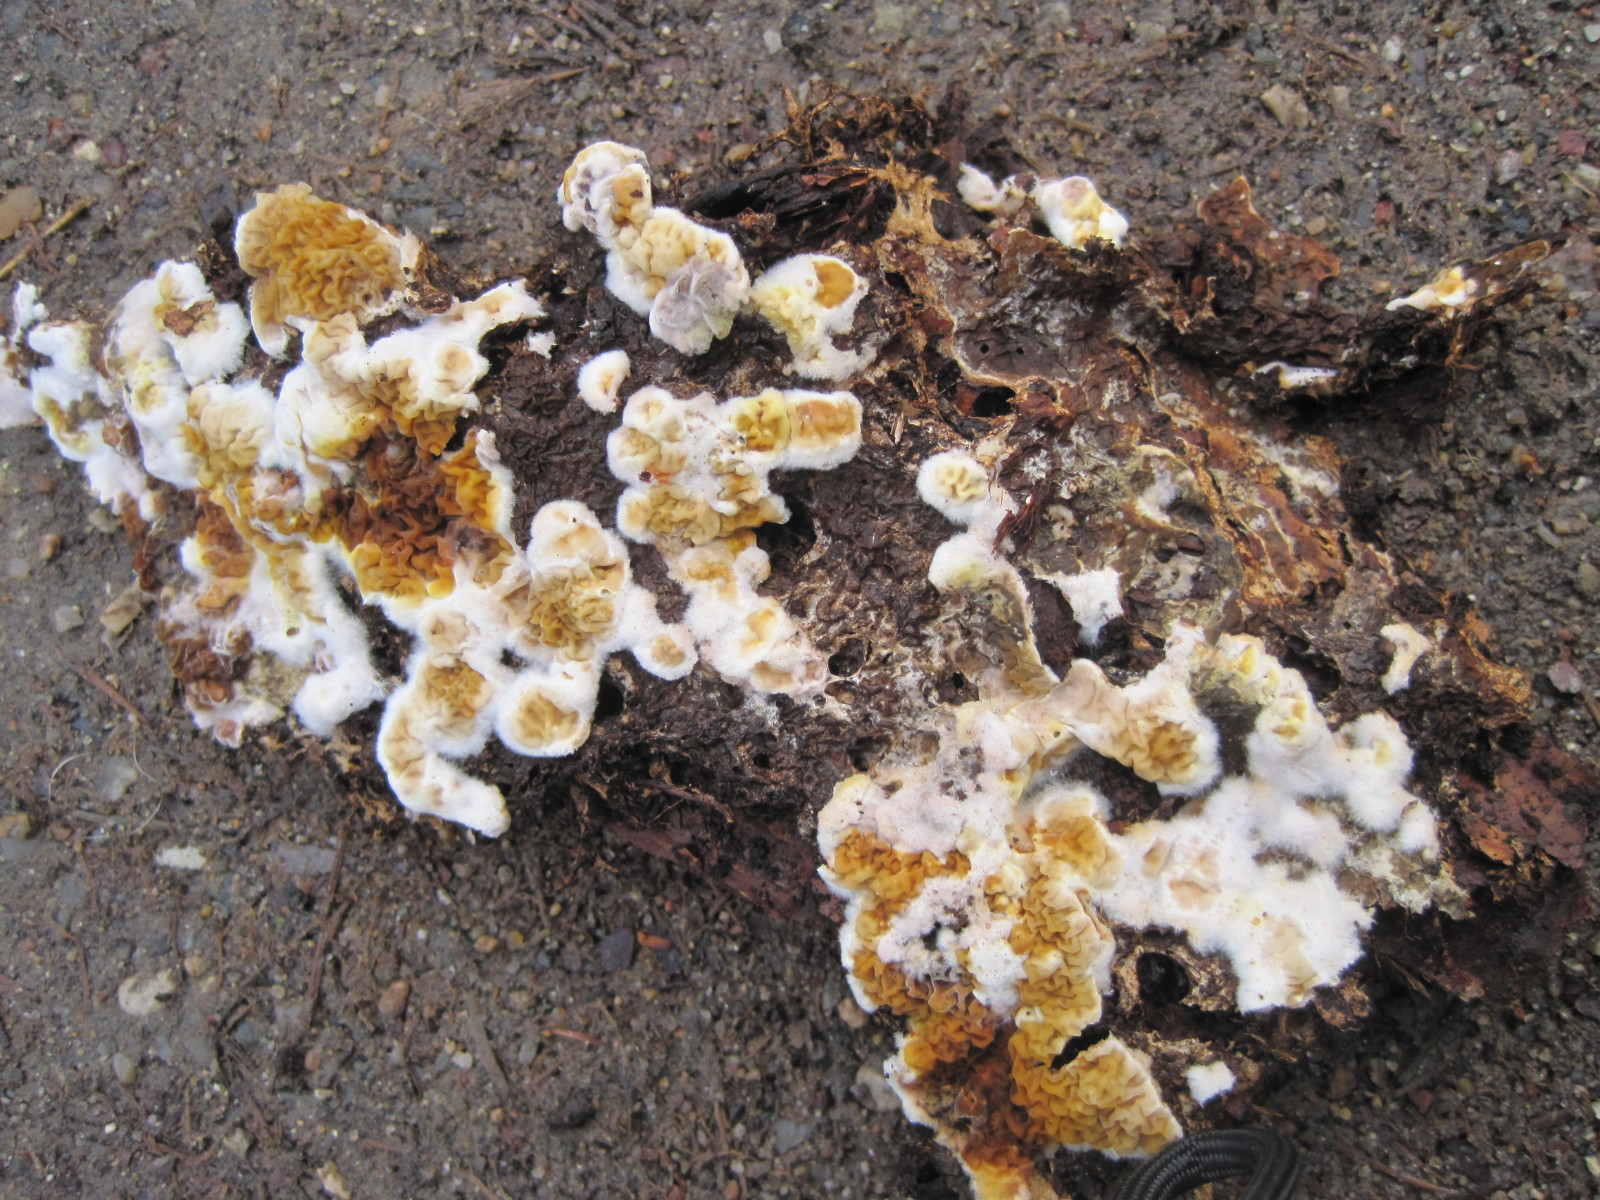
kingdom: Fungi
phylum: Basidiomycota
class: Agaricomycetes
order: Boletales
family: Serpulaceae
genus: Serpula
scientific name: Serpula himantioides
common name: tyndkødet hussvamp
